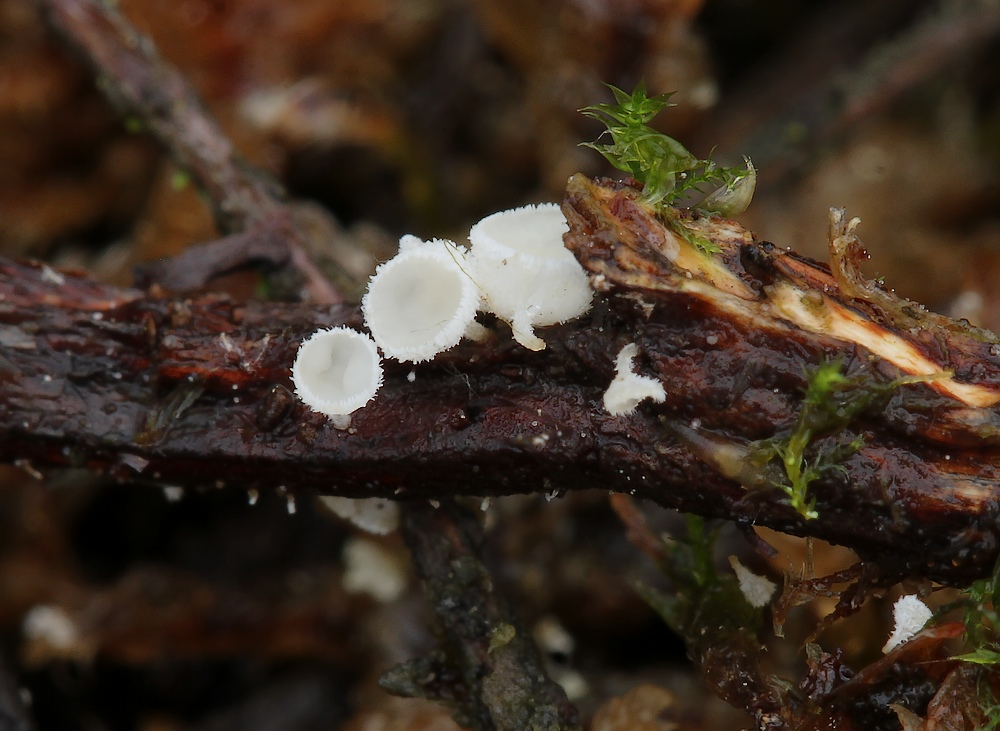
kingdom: Fungi
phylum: Ascomycota
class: Leotiomycetes
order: Helotiales
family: Lachnaceae
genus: Lachnum
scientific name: Lachnum
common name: frynseskive
